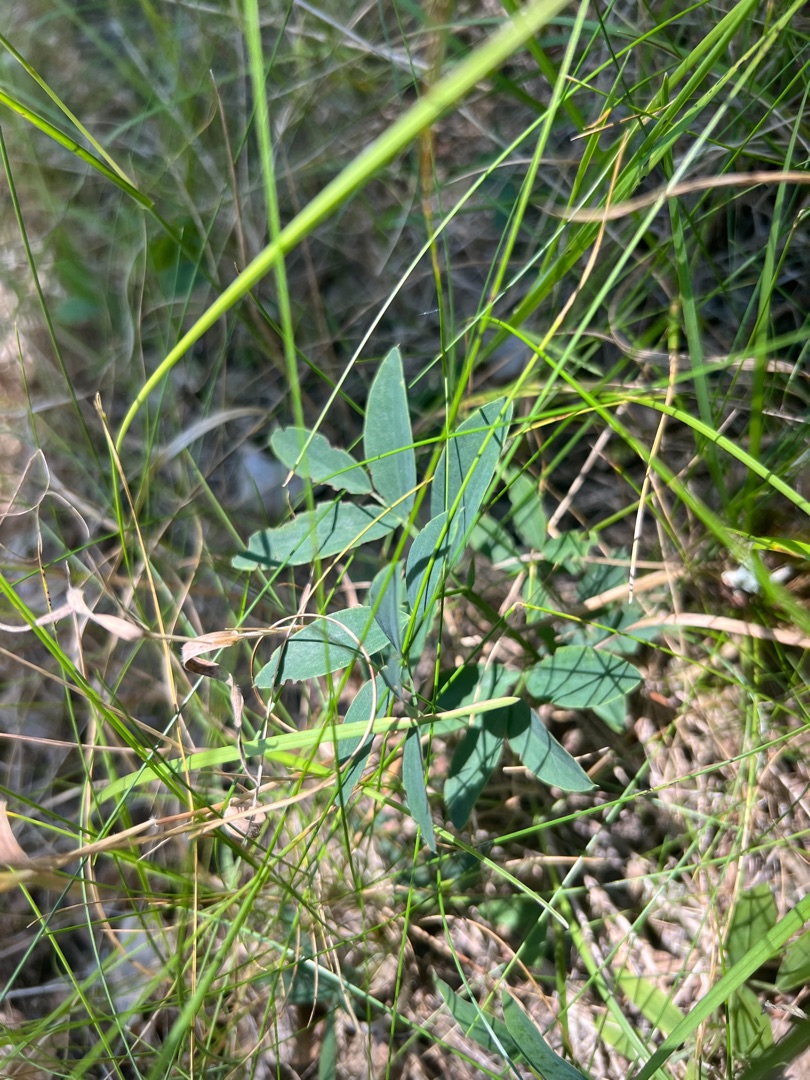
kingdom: Plantae
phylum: Tracheophyta
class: Magnoliopsida
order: Fabales
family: Fabaceae
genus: Lathyrus
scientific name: Lathyrus linifolius
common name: Krat-fladbælg
